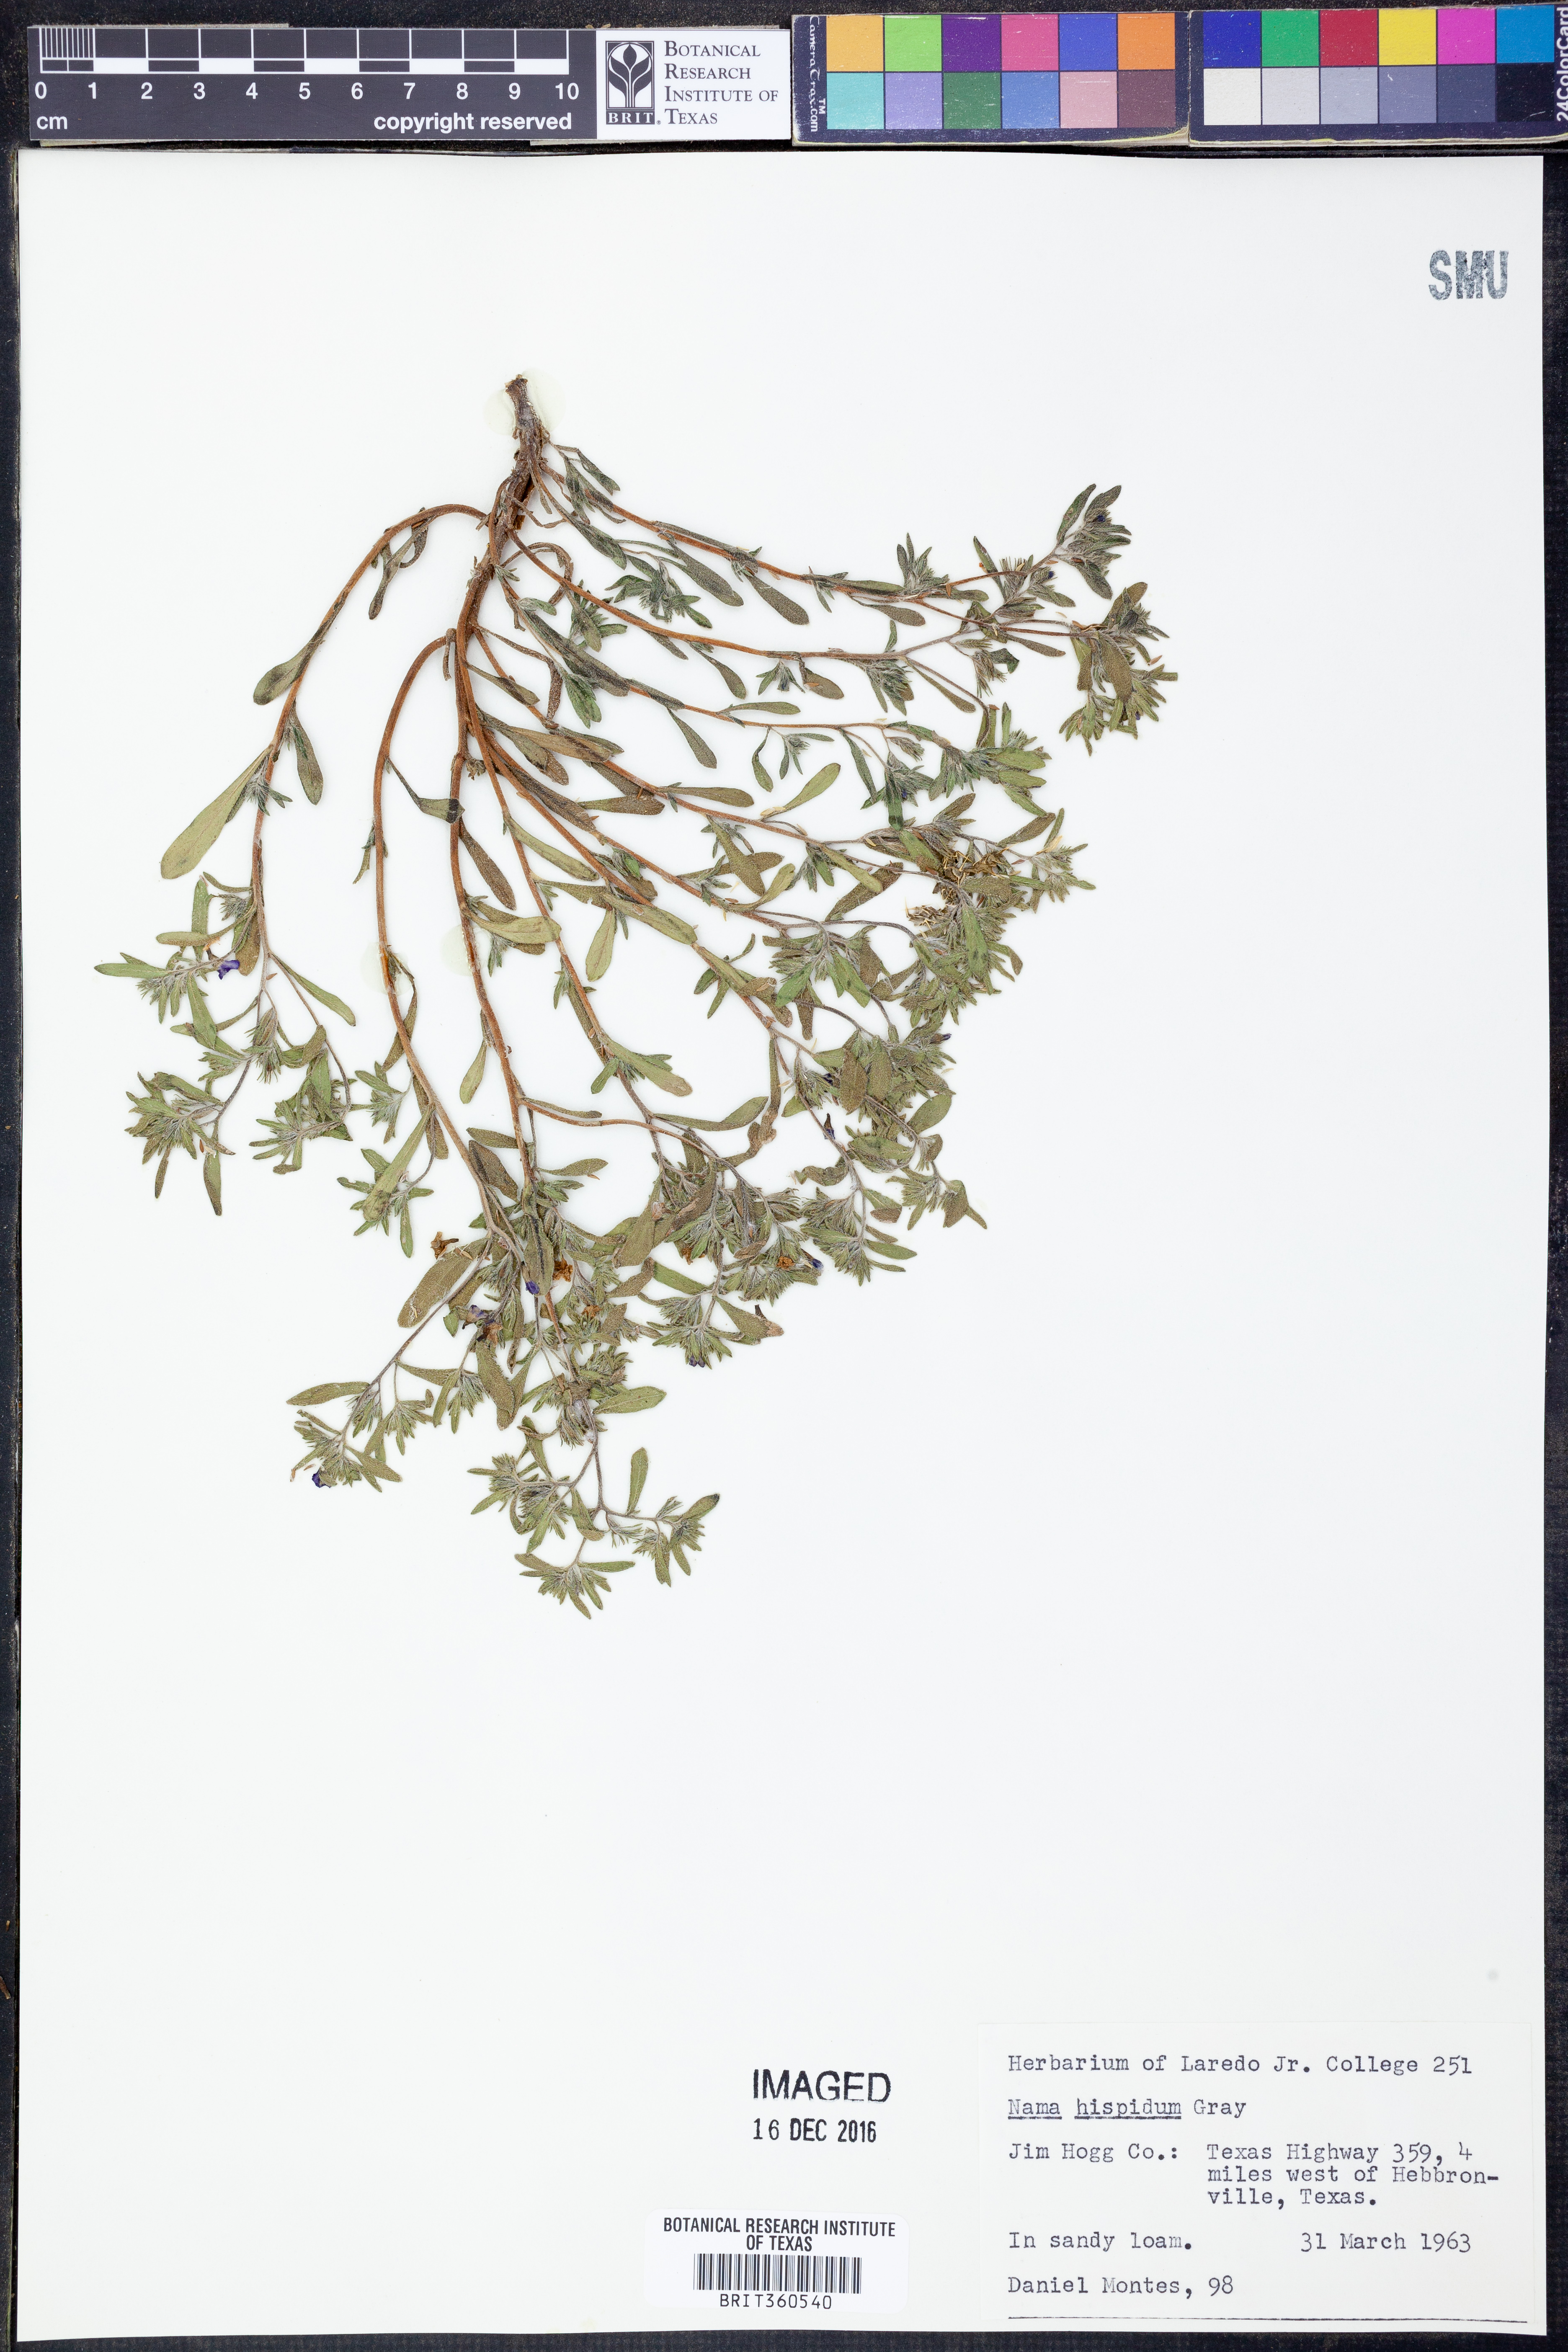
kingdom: Plantae
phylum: Tracheophyta
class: Magnoliopsida
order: Boraginales
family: Namaceae
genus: Nama
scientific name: Nama hispida
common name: Bristly nama
